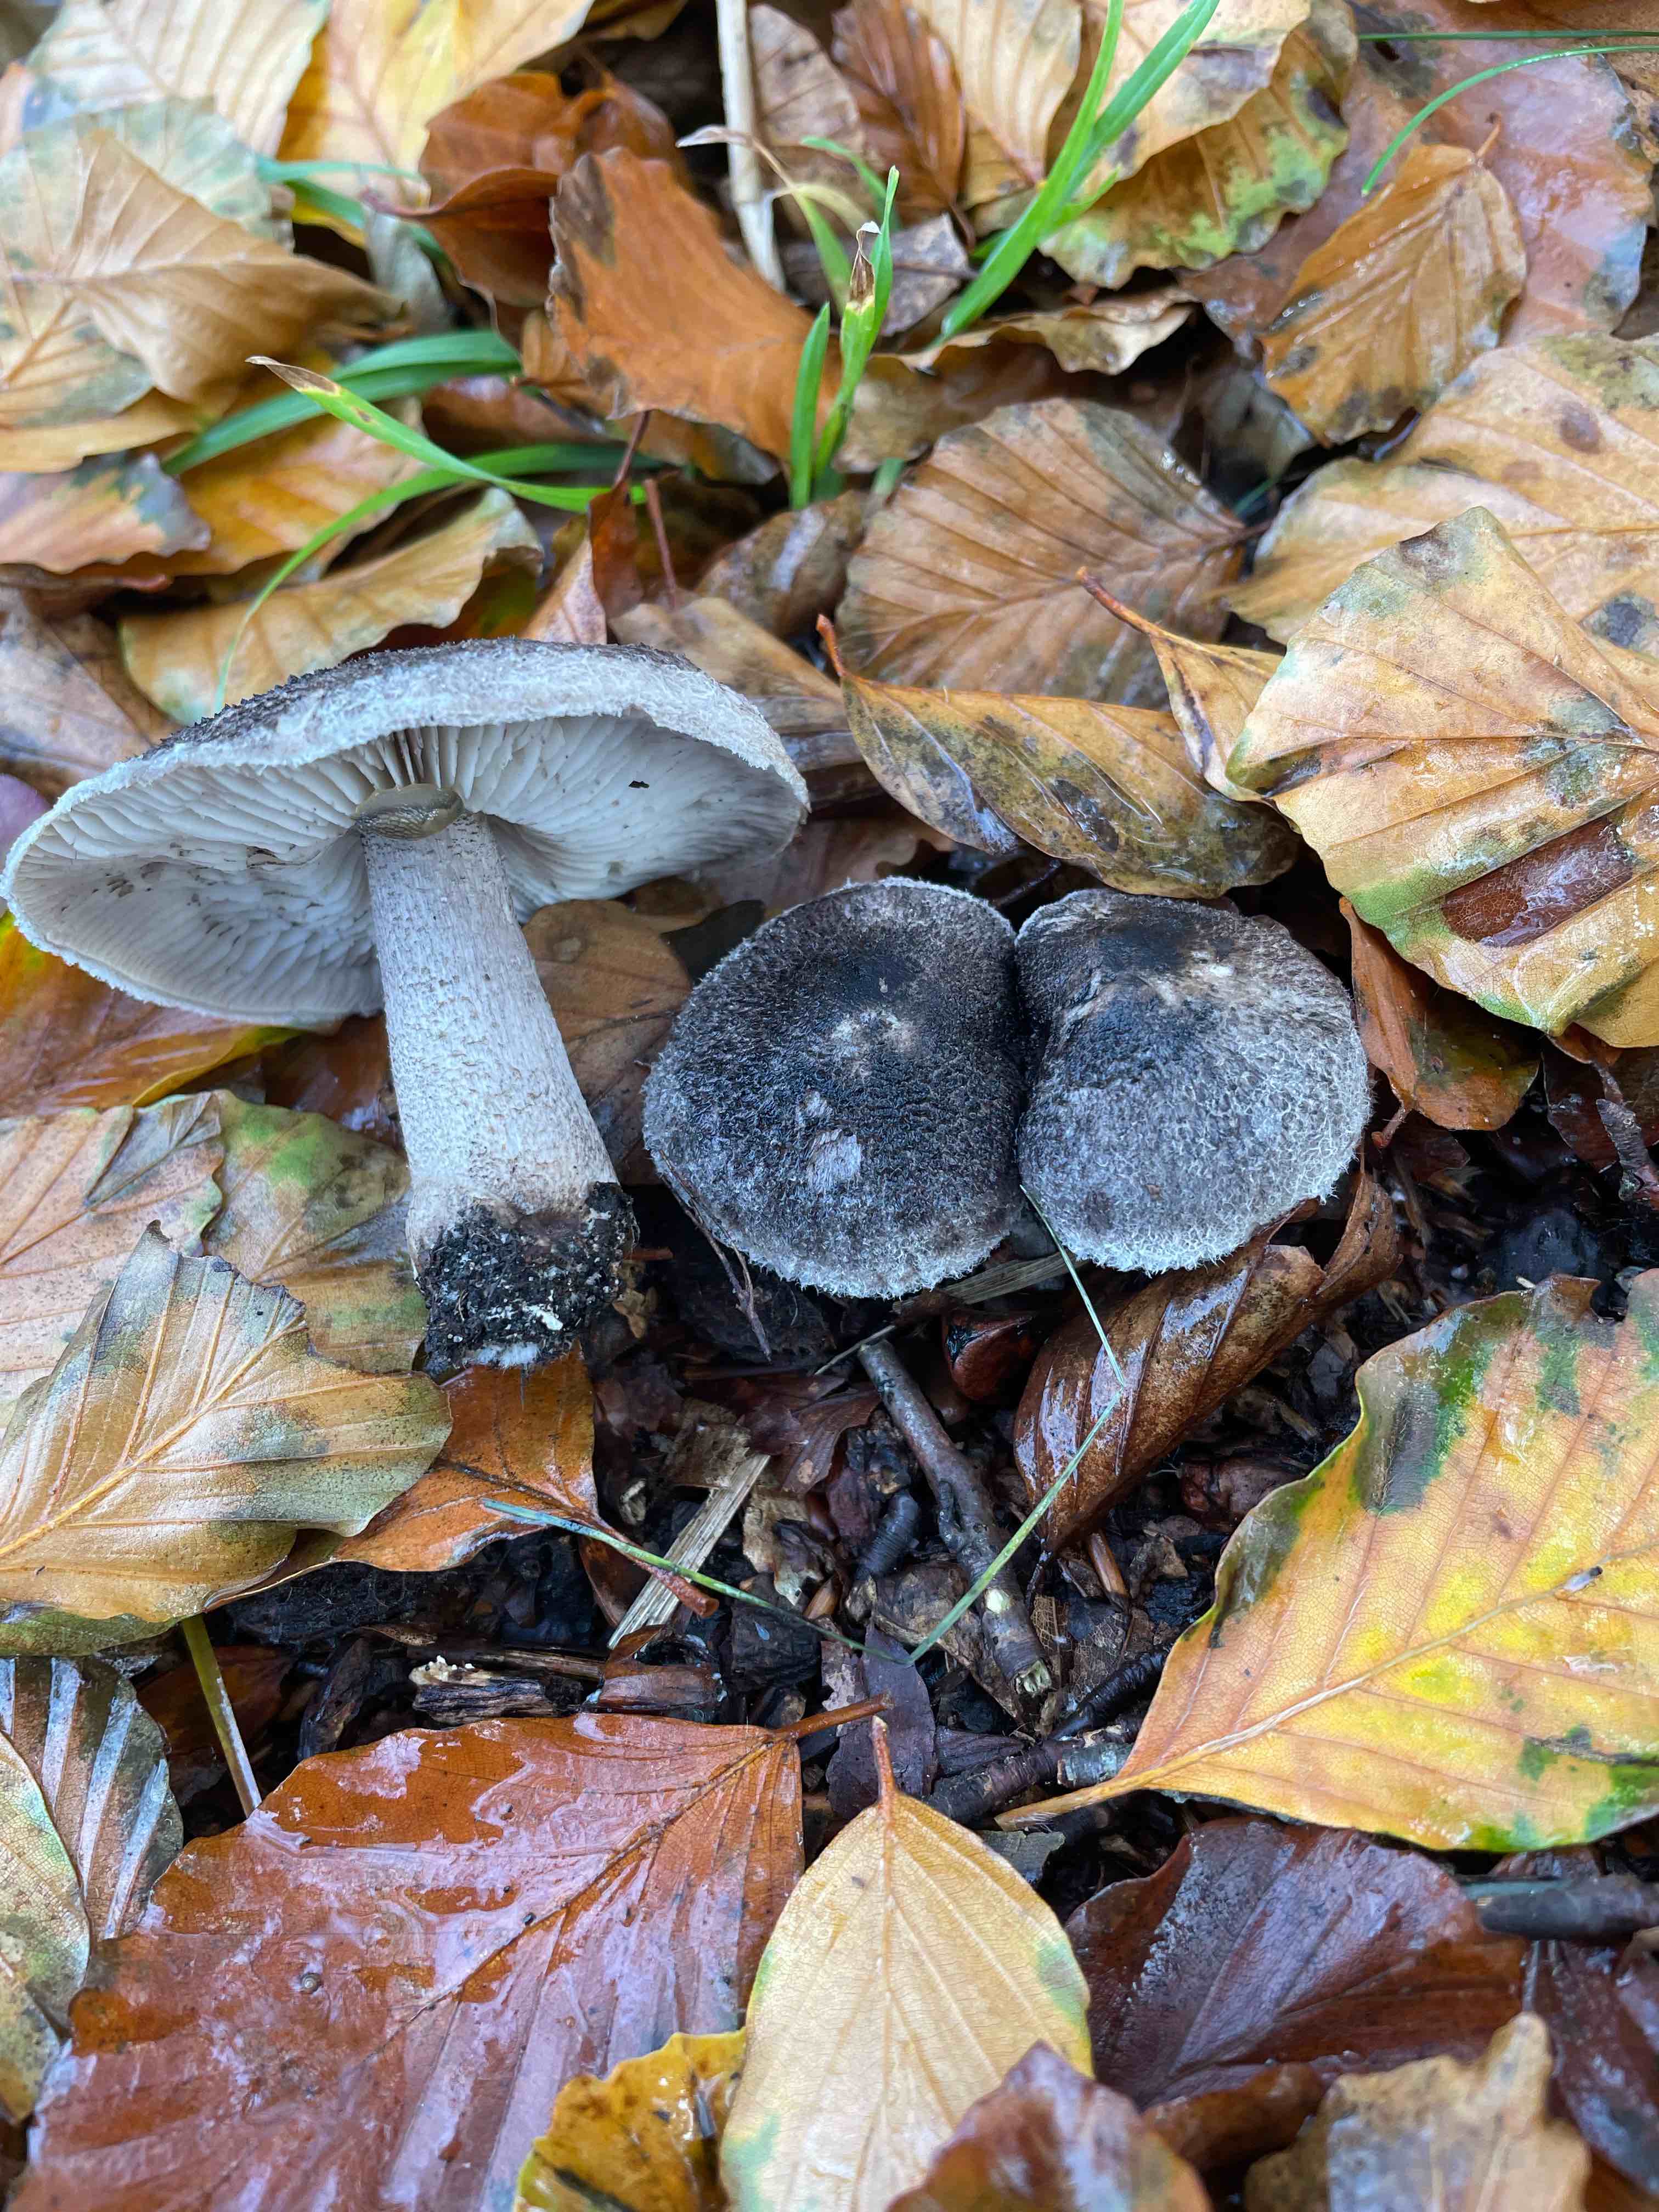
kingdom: Fungi
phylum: Basidiomycota
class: Agaricomycetes
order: Agaricales
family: Tricholomataceae
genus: Tricholoma
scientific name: Tricholoma atrosquamosum
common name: sortskællet ridderhat
